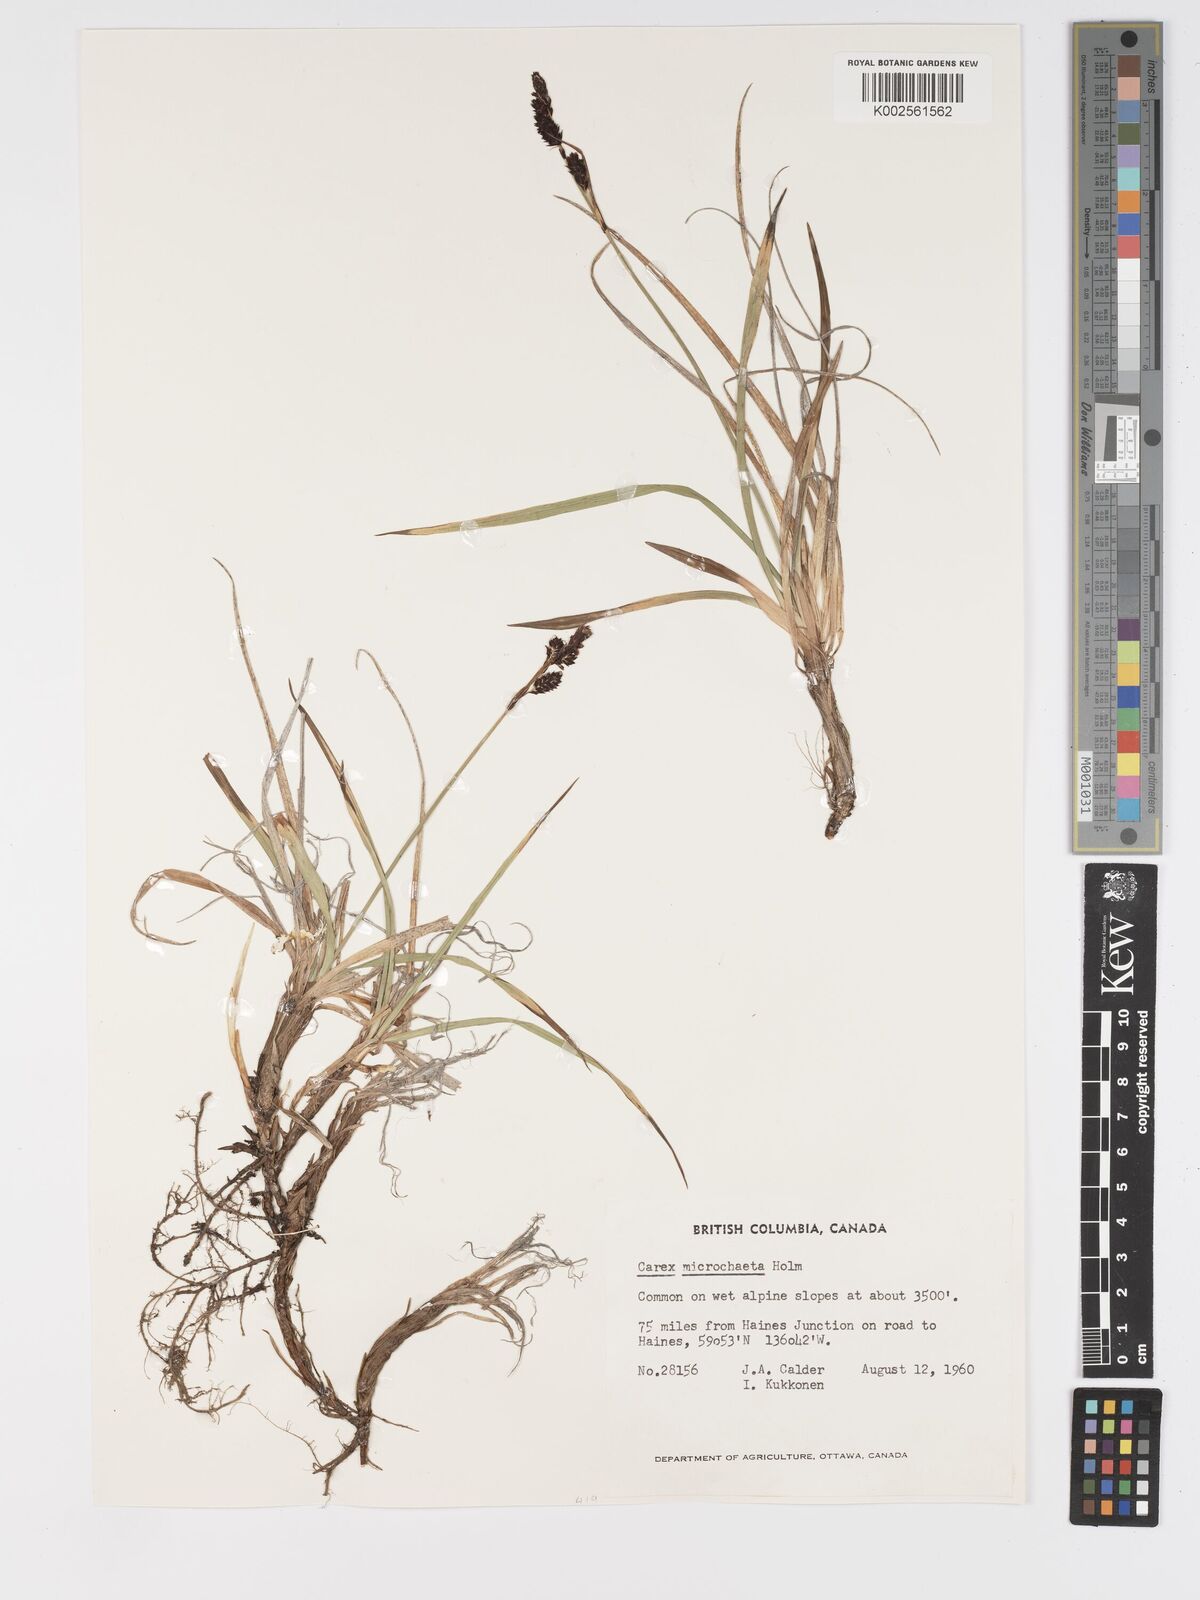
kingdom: Plantae
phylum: Tracheophyta
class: Liliopsida
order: Poales
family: Cyperaceae
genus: Carex
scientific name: Carex podocarpa
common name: Alpine sedge
